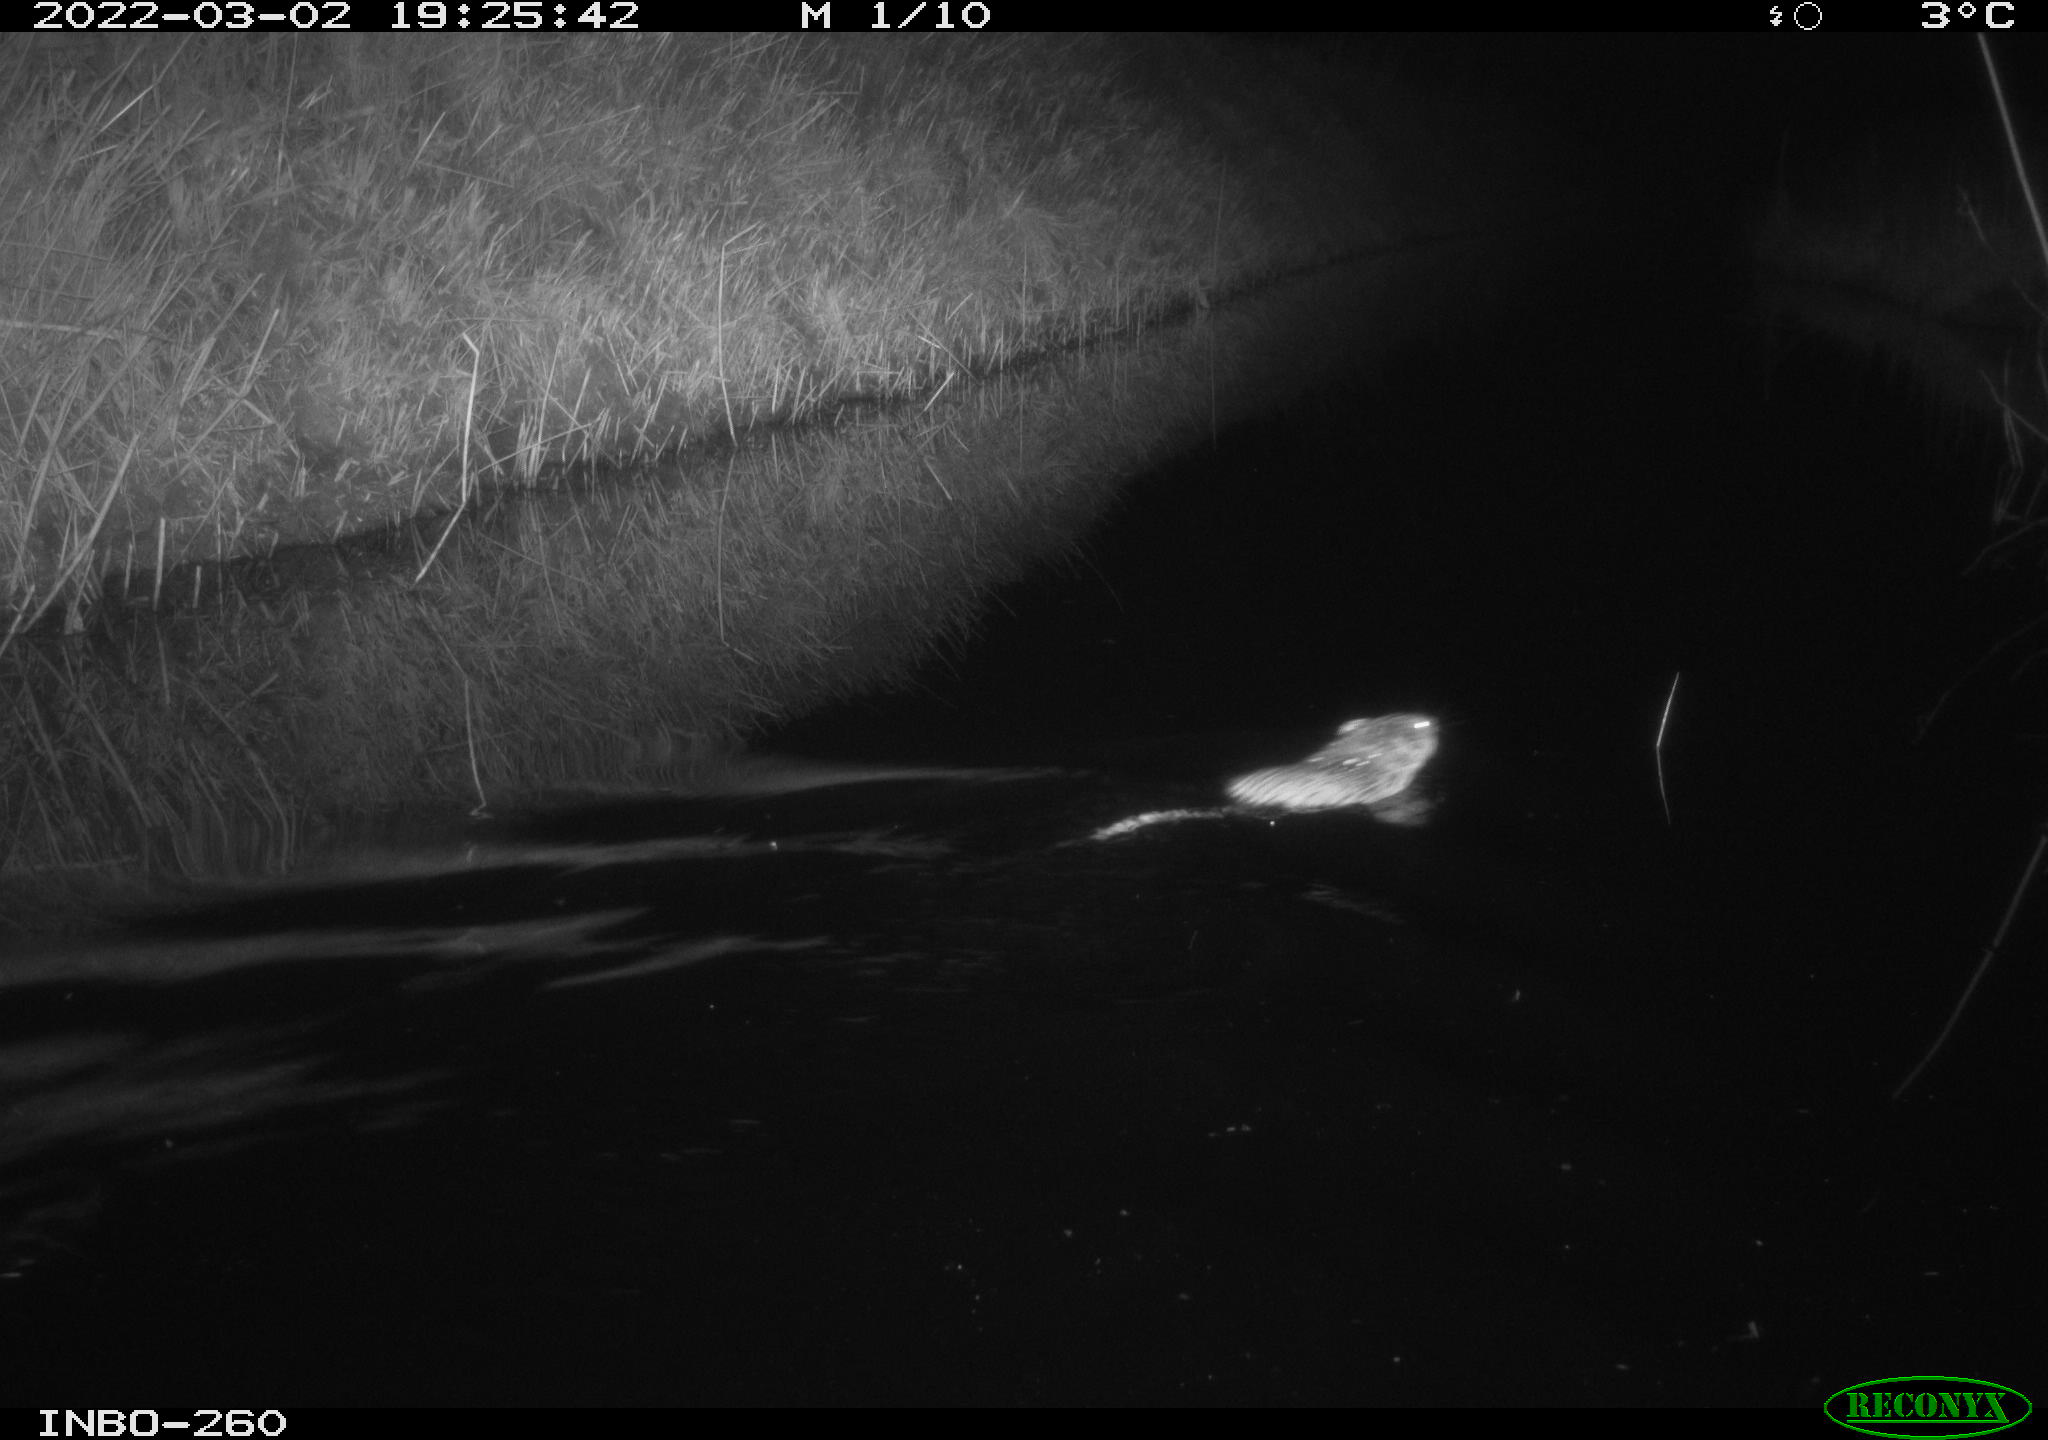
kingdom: Animalia
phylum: Chordata
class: Mammalia
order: Rodentia
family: Cricetidae
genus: Ondatra
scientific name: Ondatra zibethicus
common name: Muskrat
